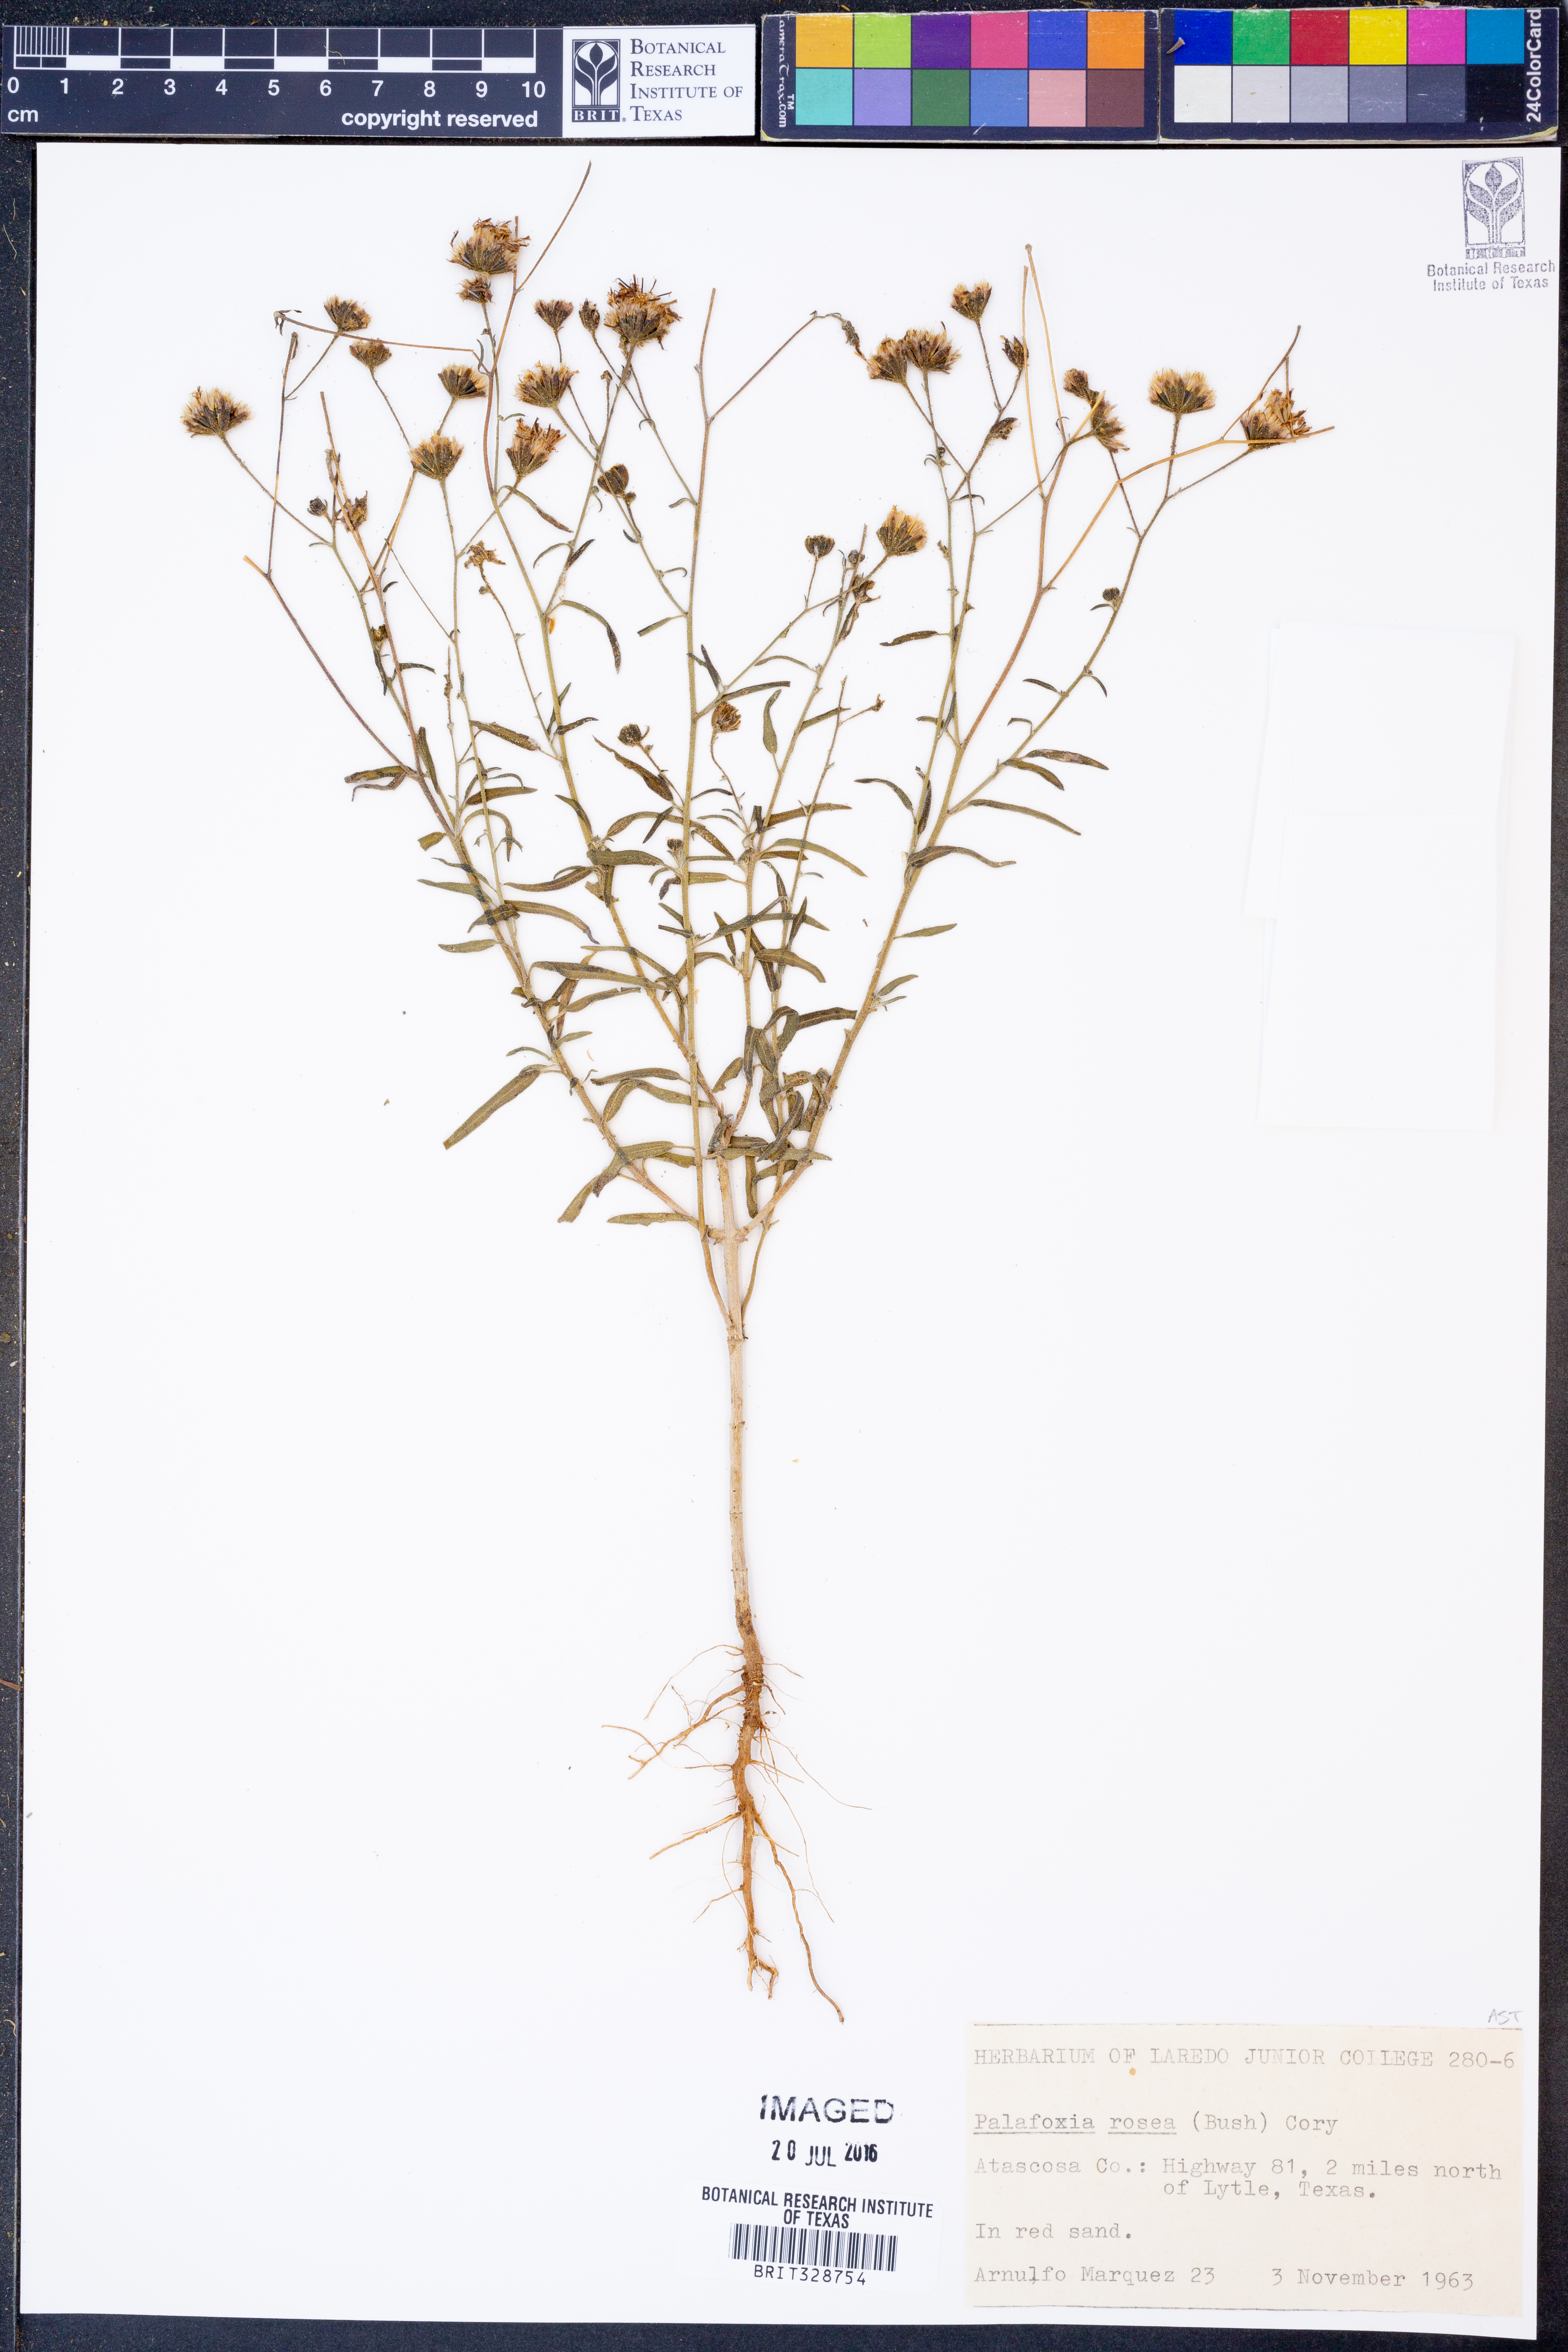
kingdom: Plantae
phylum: Tracheophyta
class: Magnoliopsida
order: Asterales
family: Asteraceae
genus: Palafoxia
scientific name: Palafoxia rosea
